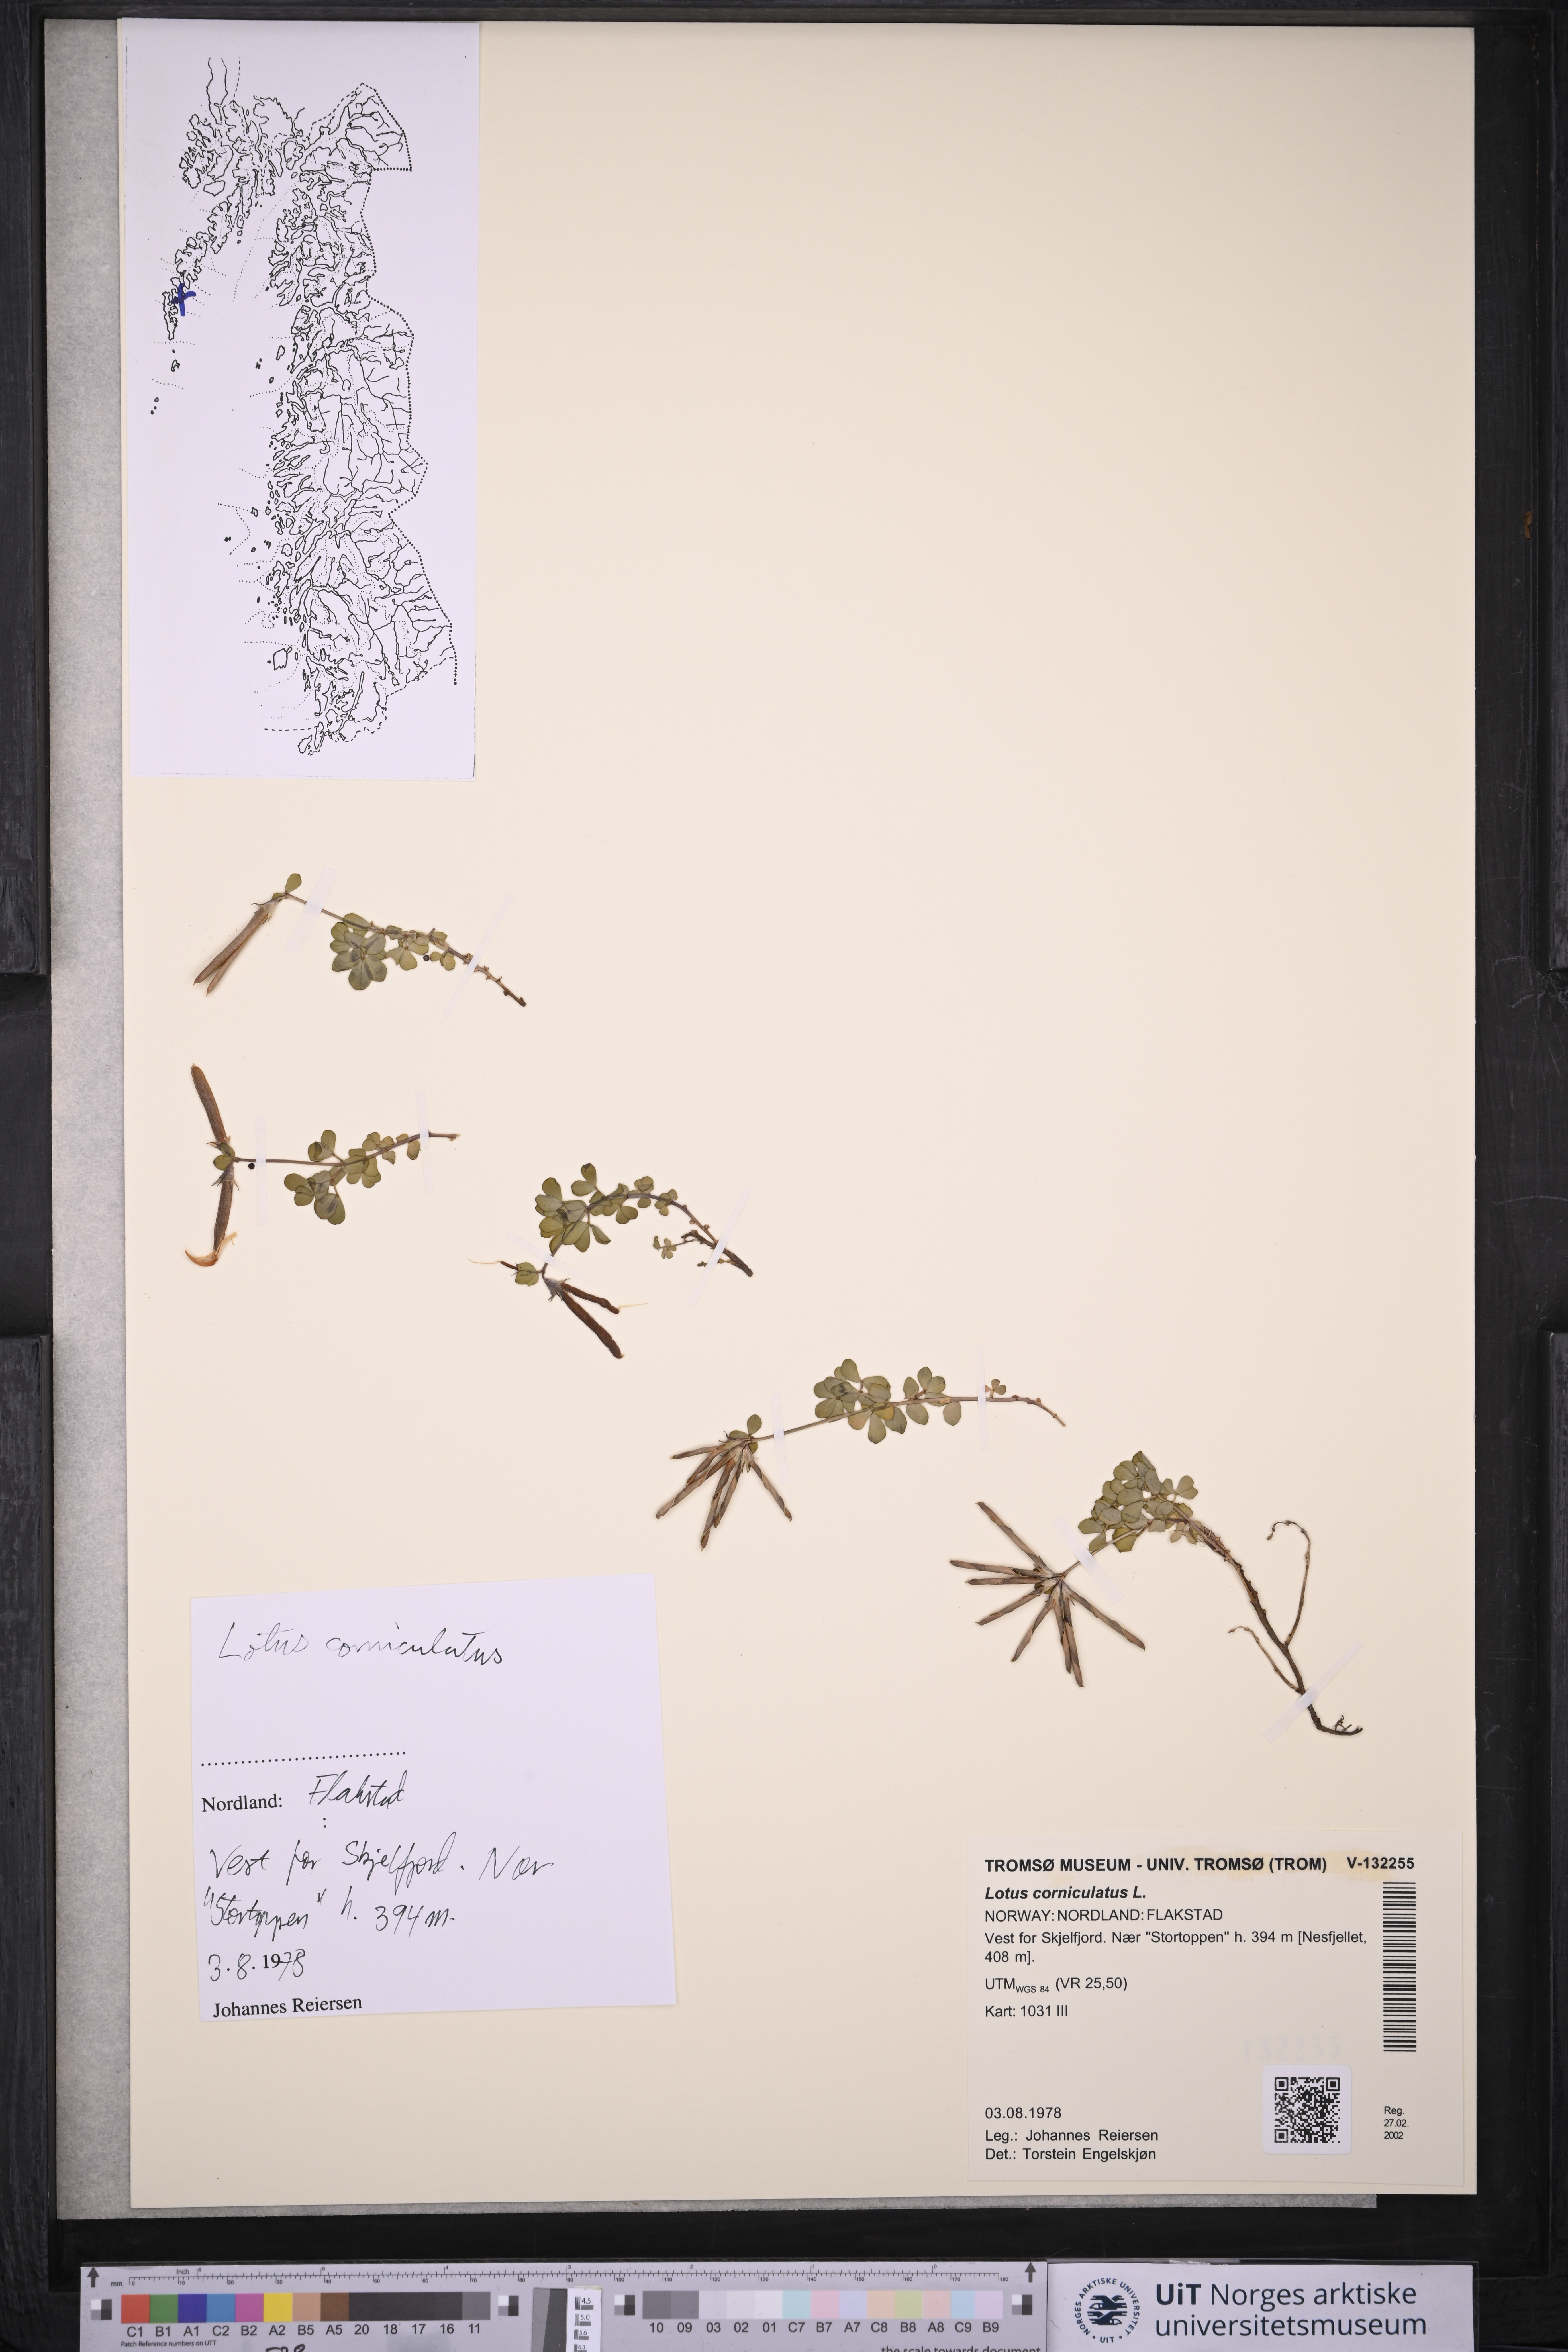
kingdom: Plantae
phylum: Tracheophyta
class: Magnoliopsida
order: Fabales
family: Fabaceae
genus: Lotus
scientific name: Lotus corniculatus
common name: Common bird's-foot-trefoil
